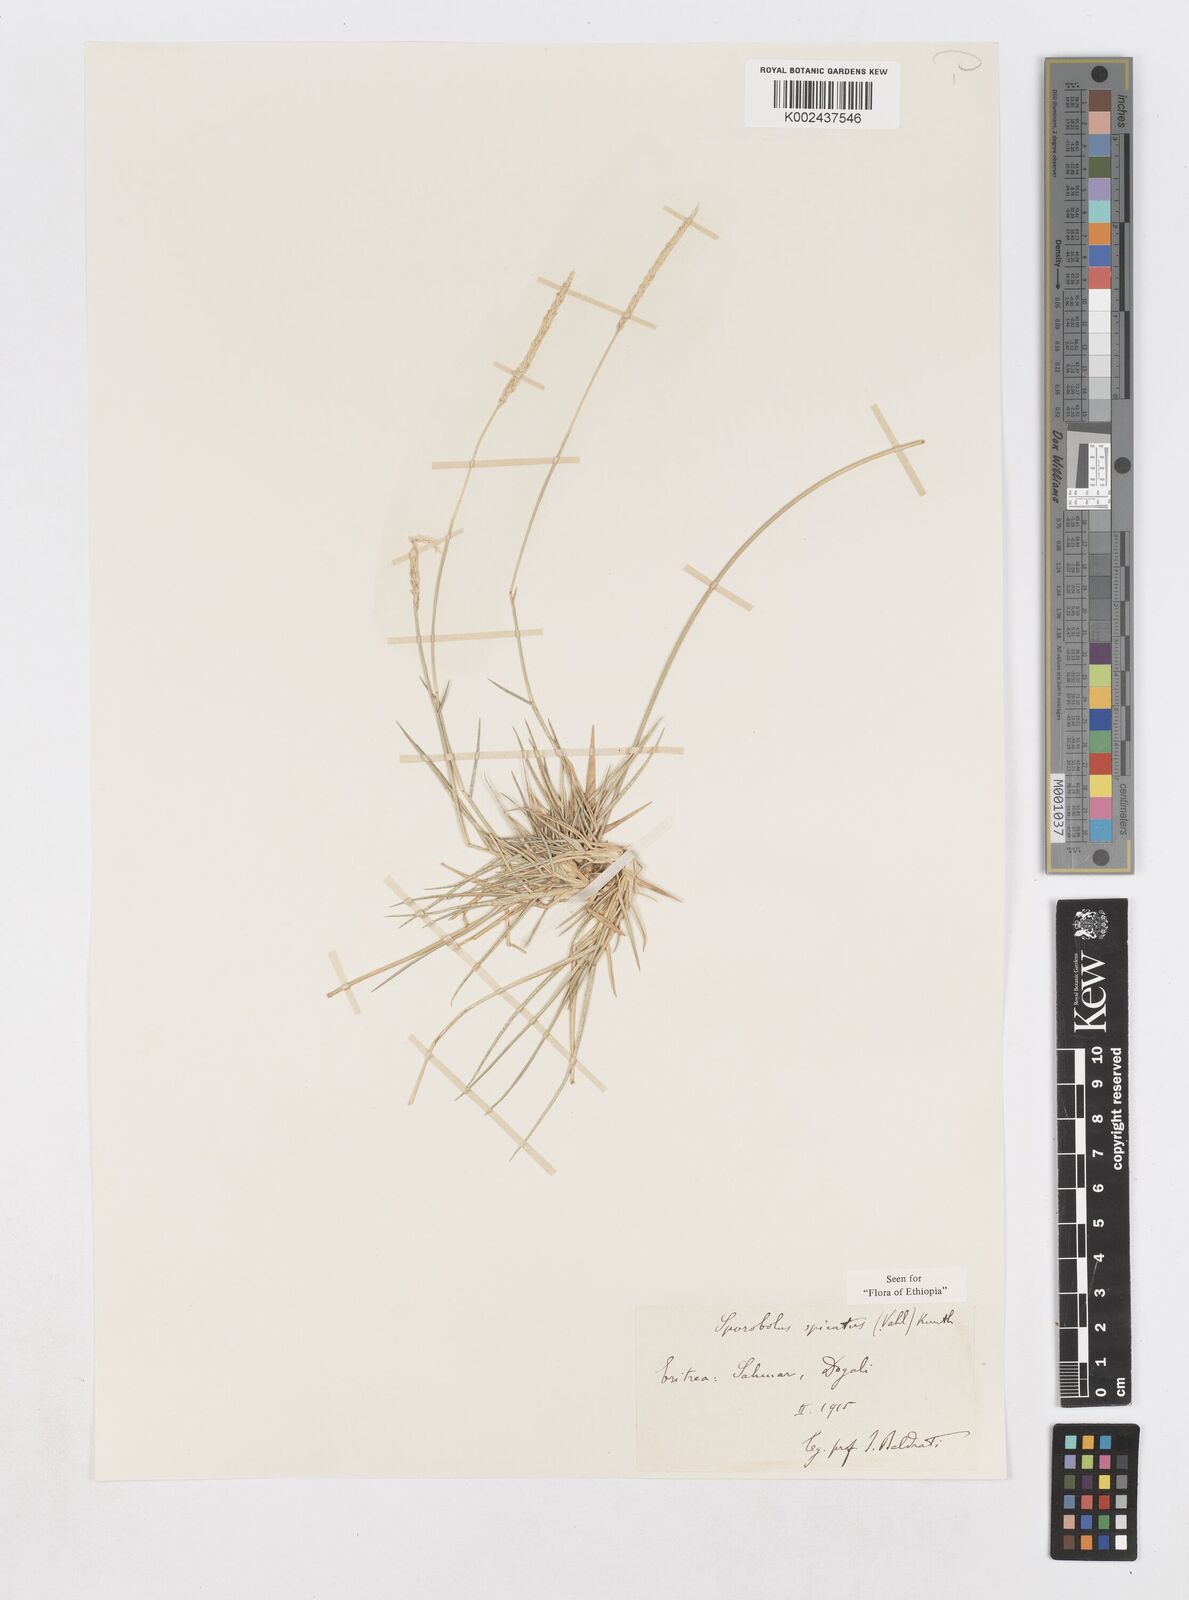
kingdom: Plantae
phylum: Tracheophyta
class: Liliopsida
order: Poales
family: Poaceae
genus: Sporobolus
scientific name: Sporobolus spicatus
